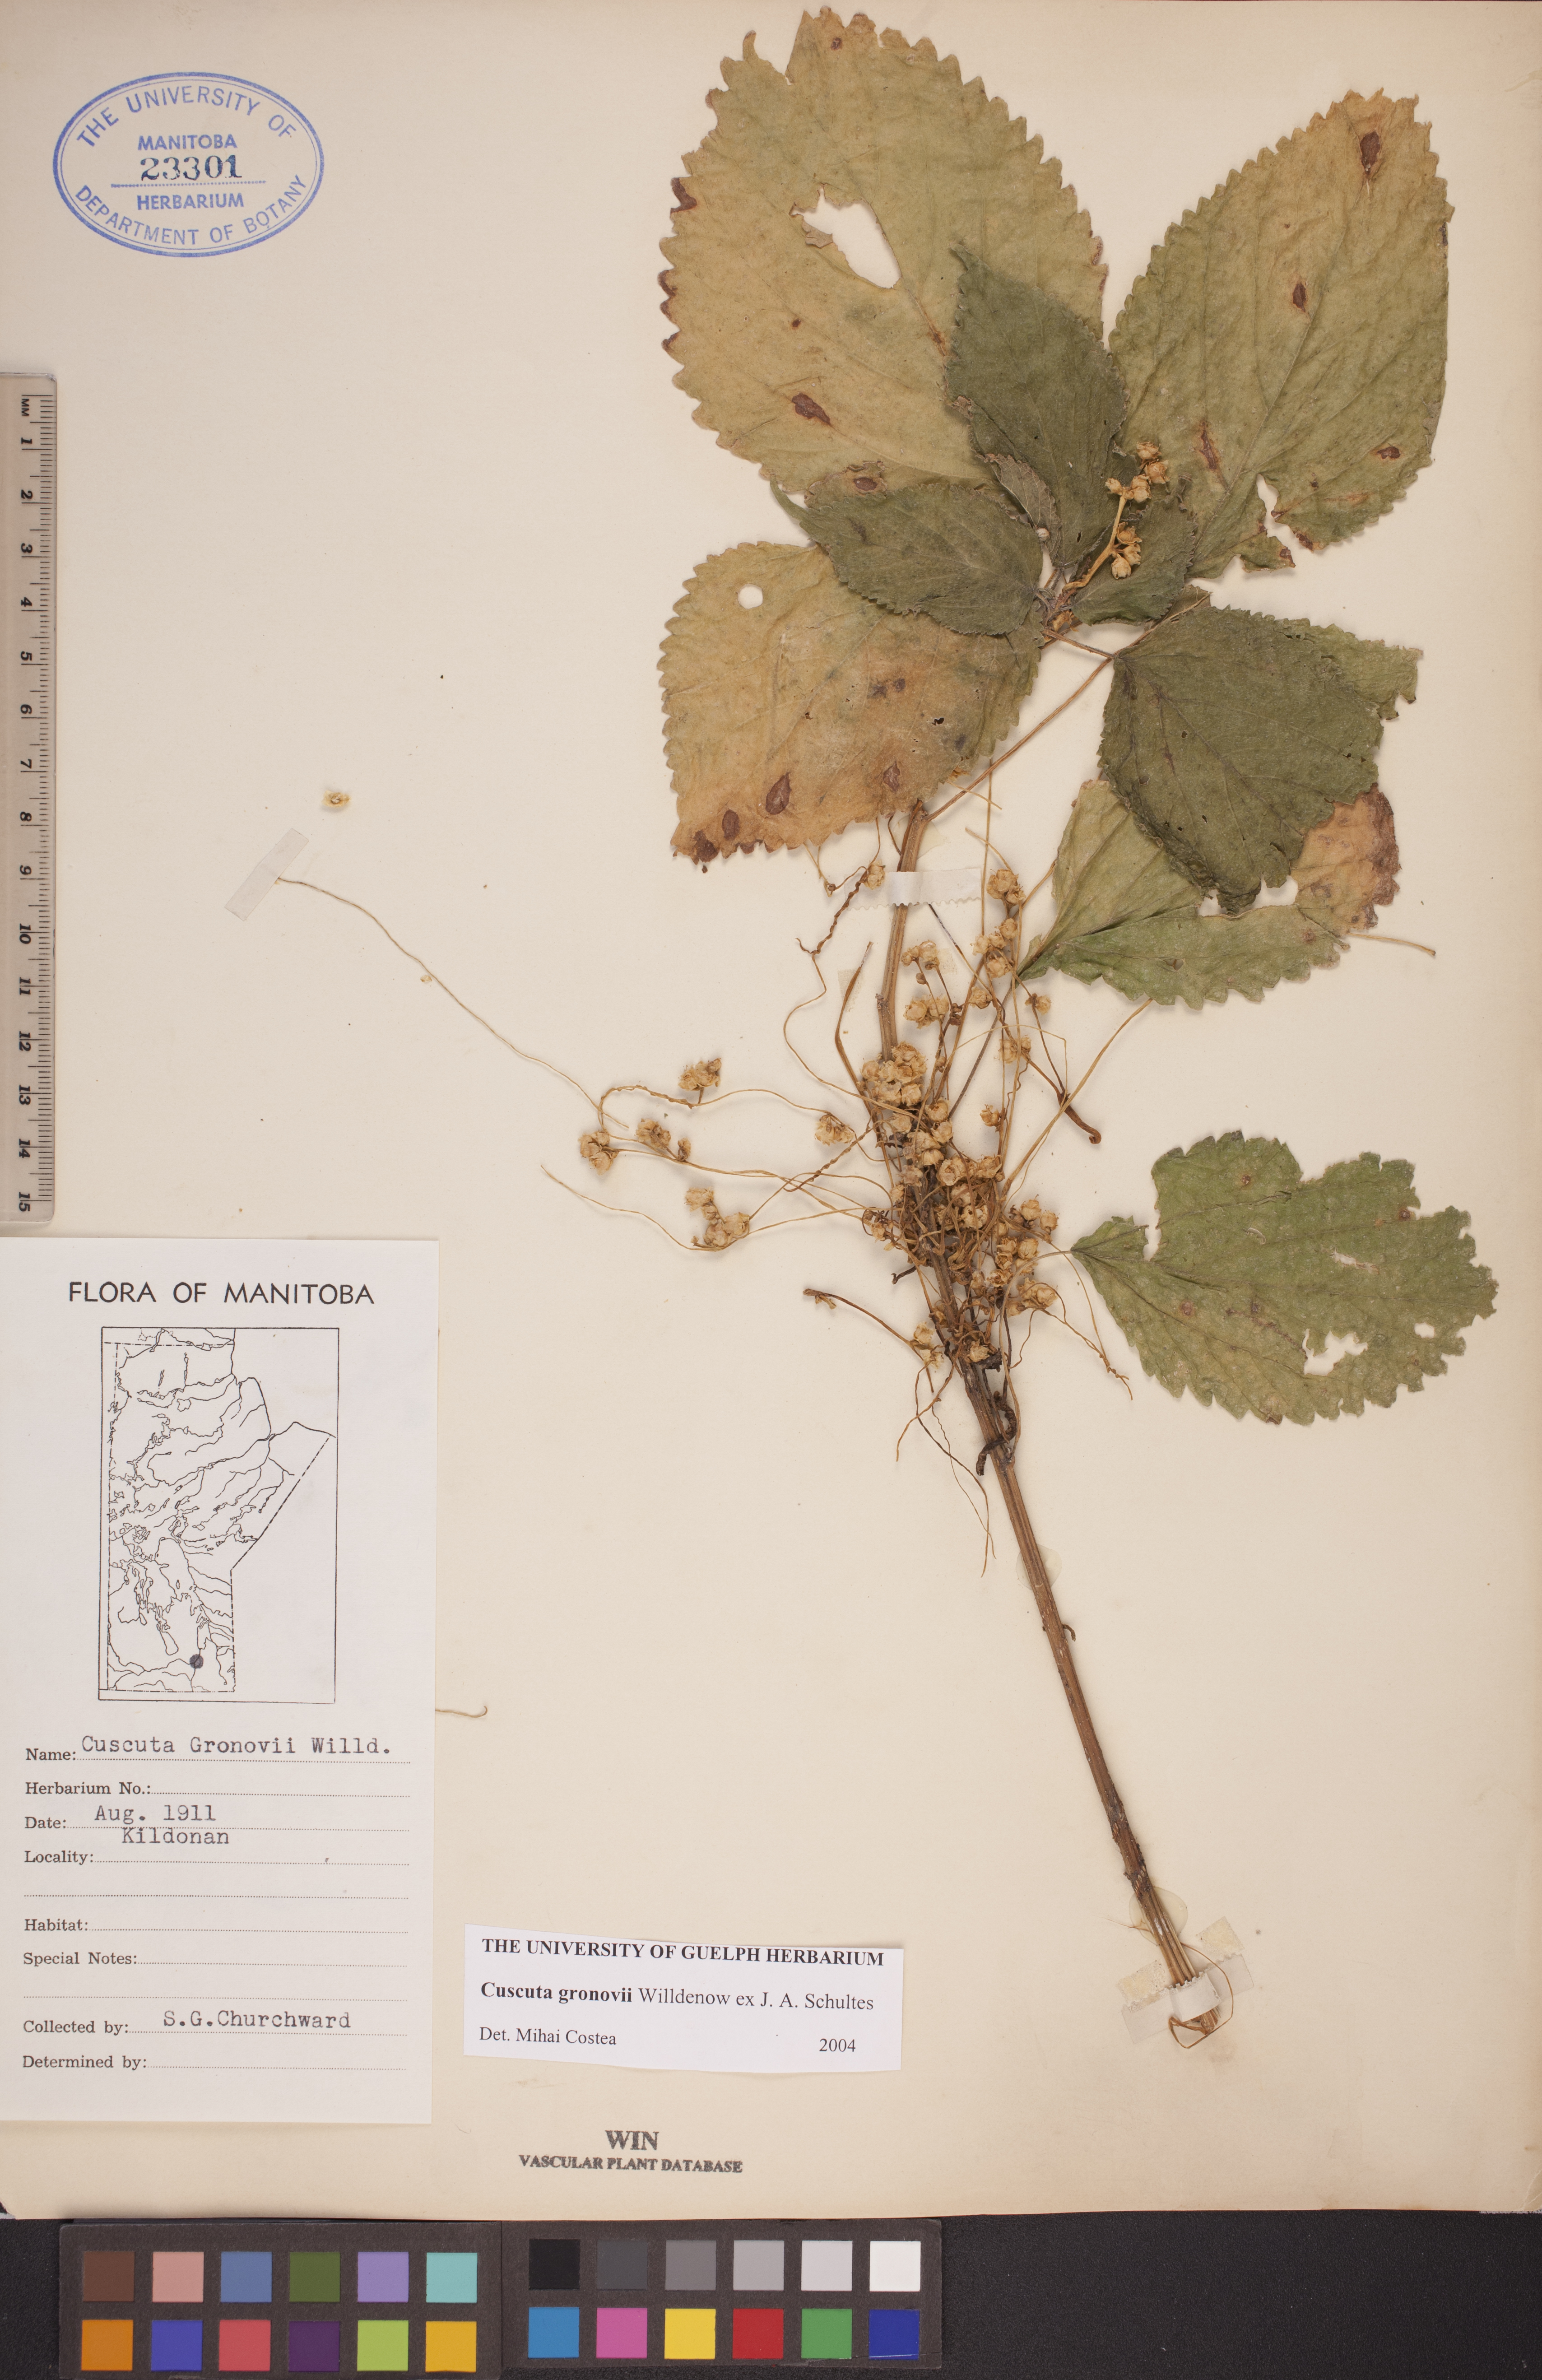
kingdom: Plantae
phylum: Tracheophyta
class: Magnoliopsida
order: Solanales
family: Convolvulaceae
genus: Cuscuta
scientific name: Cuscuta gronovii
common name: Common dodder
